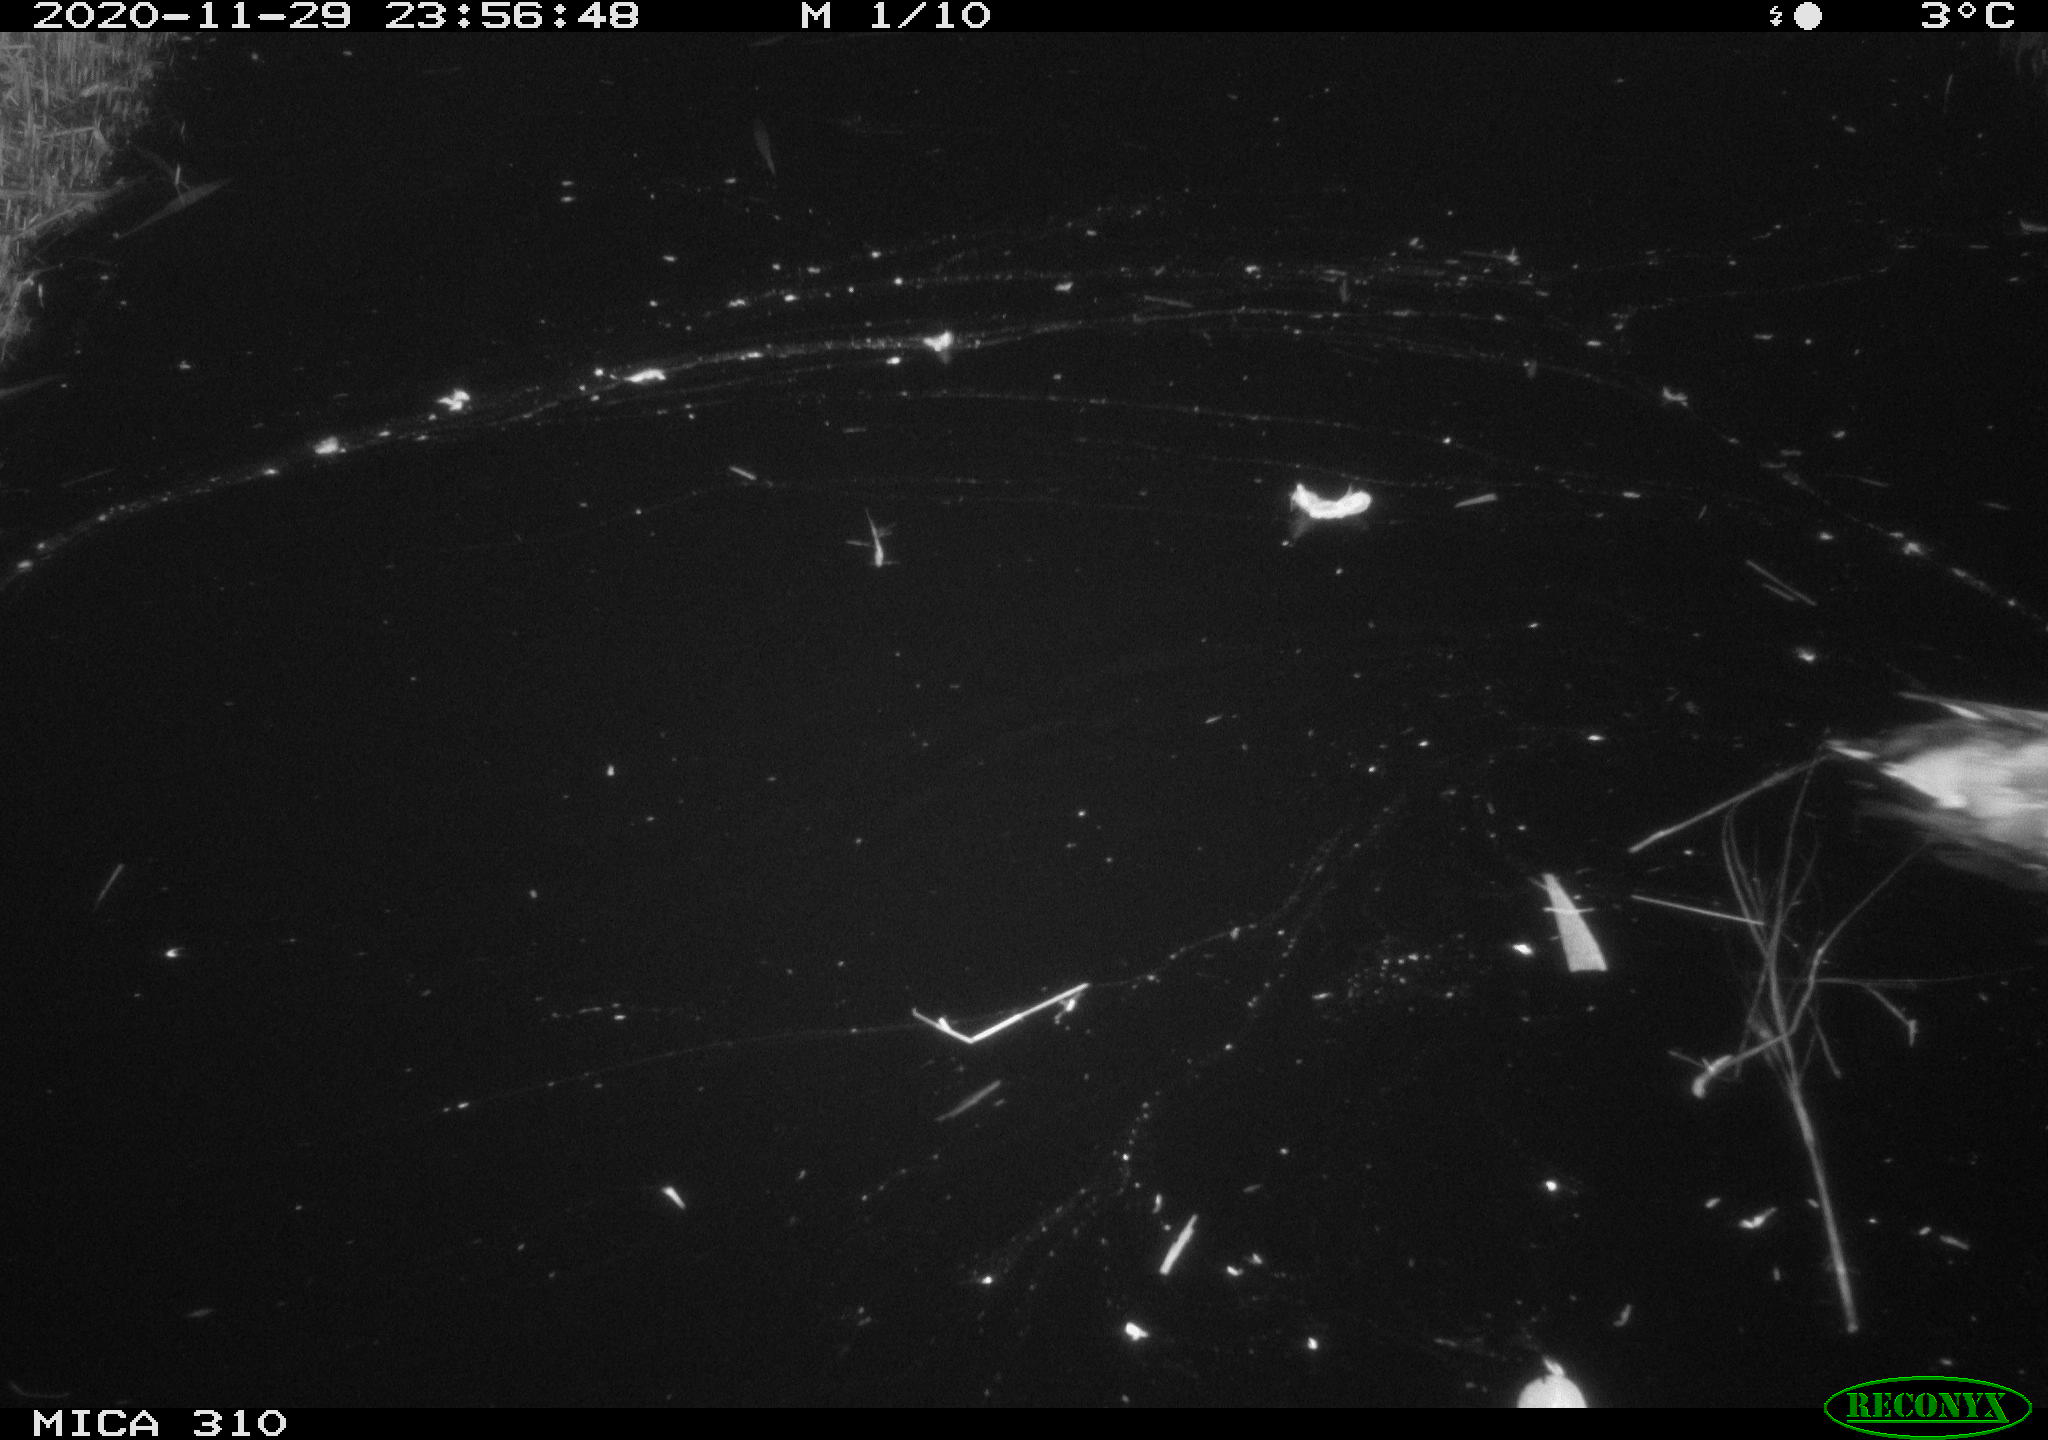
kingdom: Animalia
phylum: Chordata
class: Aves
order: Anseriformes
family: Anatidae
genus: Anas
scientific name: Anas
